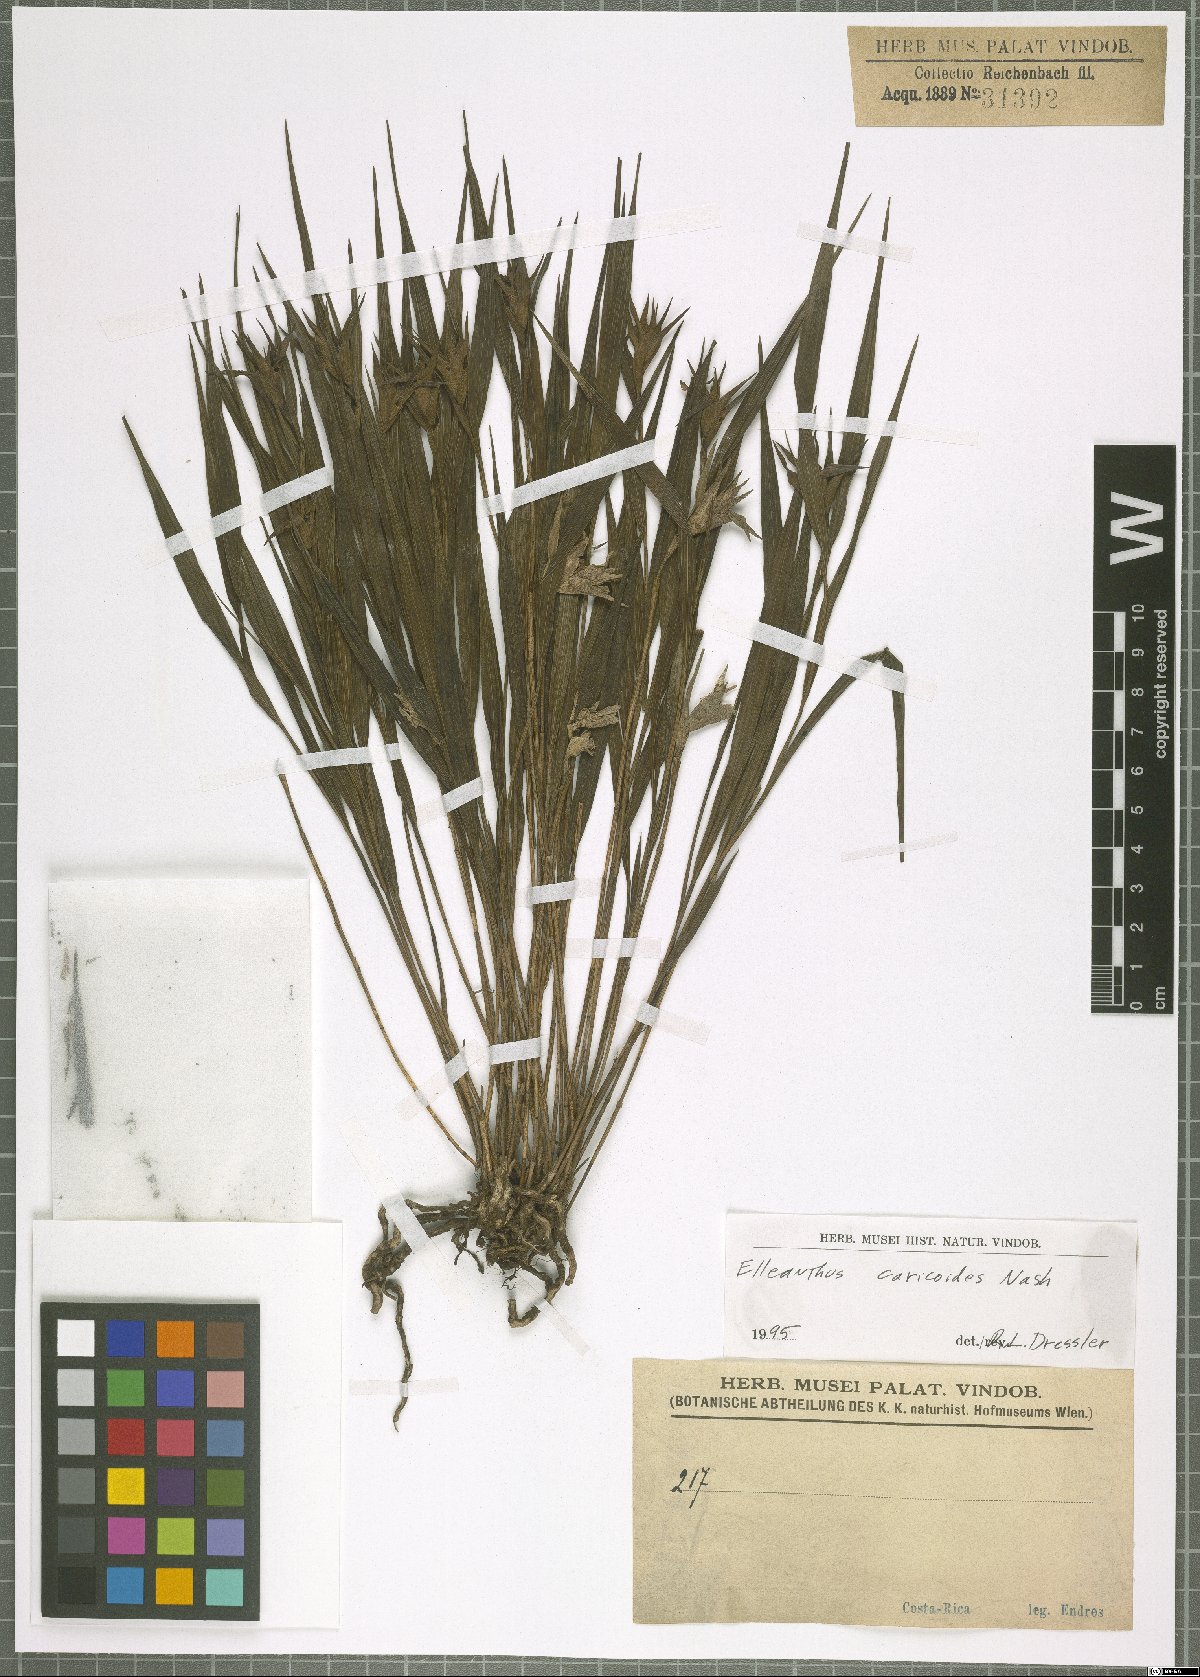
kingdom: Plantae
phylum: Tracheophyta
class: Liliopsida
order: Asparagales
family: Orchidaceae
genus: Elleanthus
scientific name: Elleanthus caricoides
